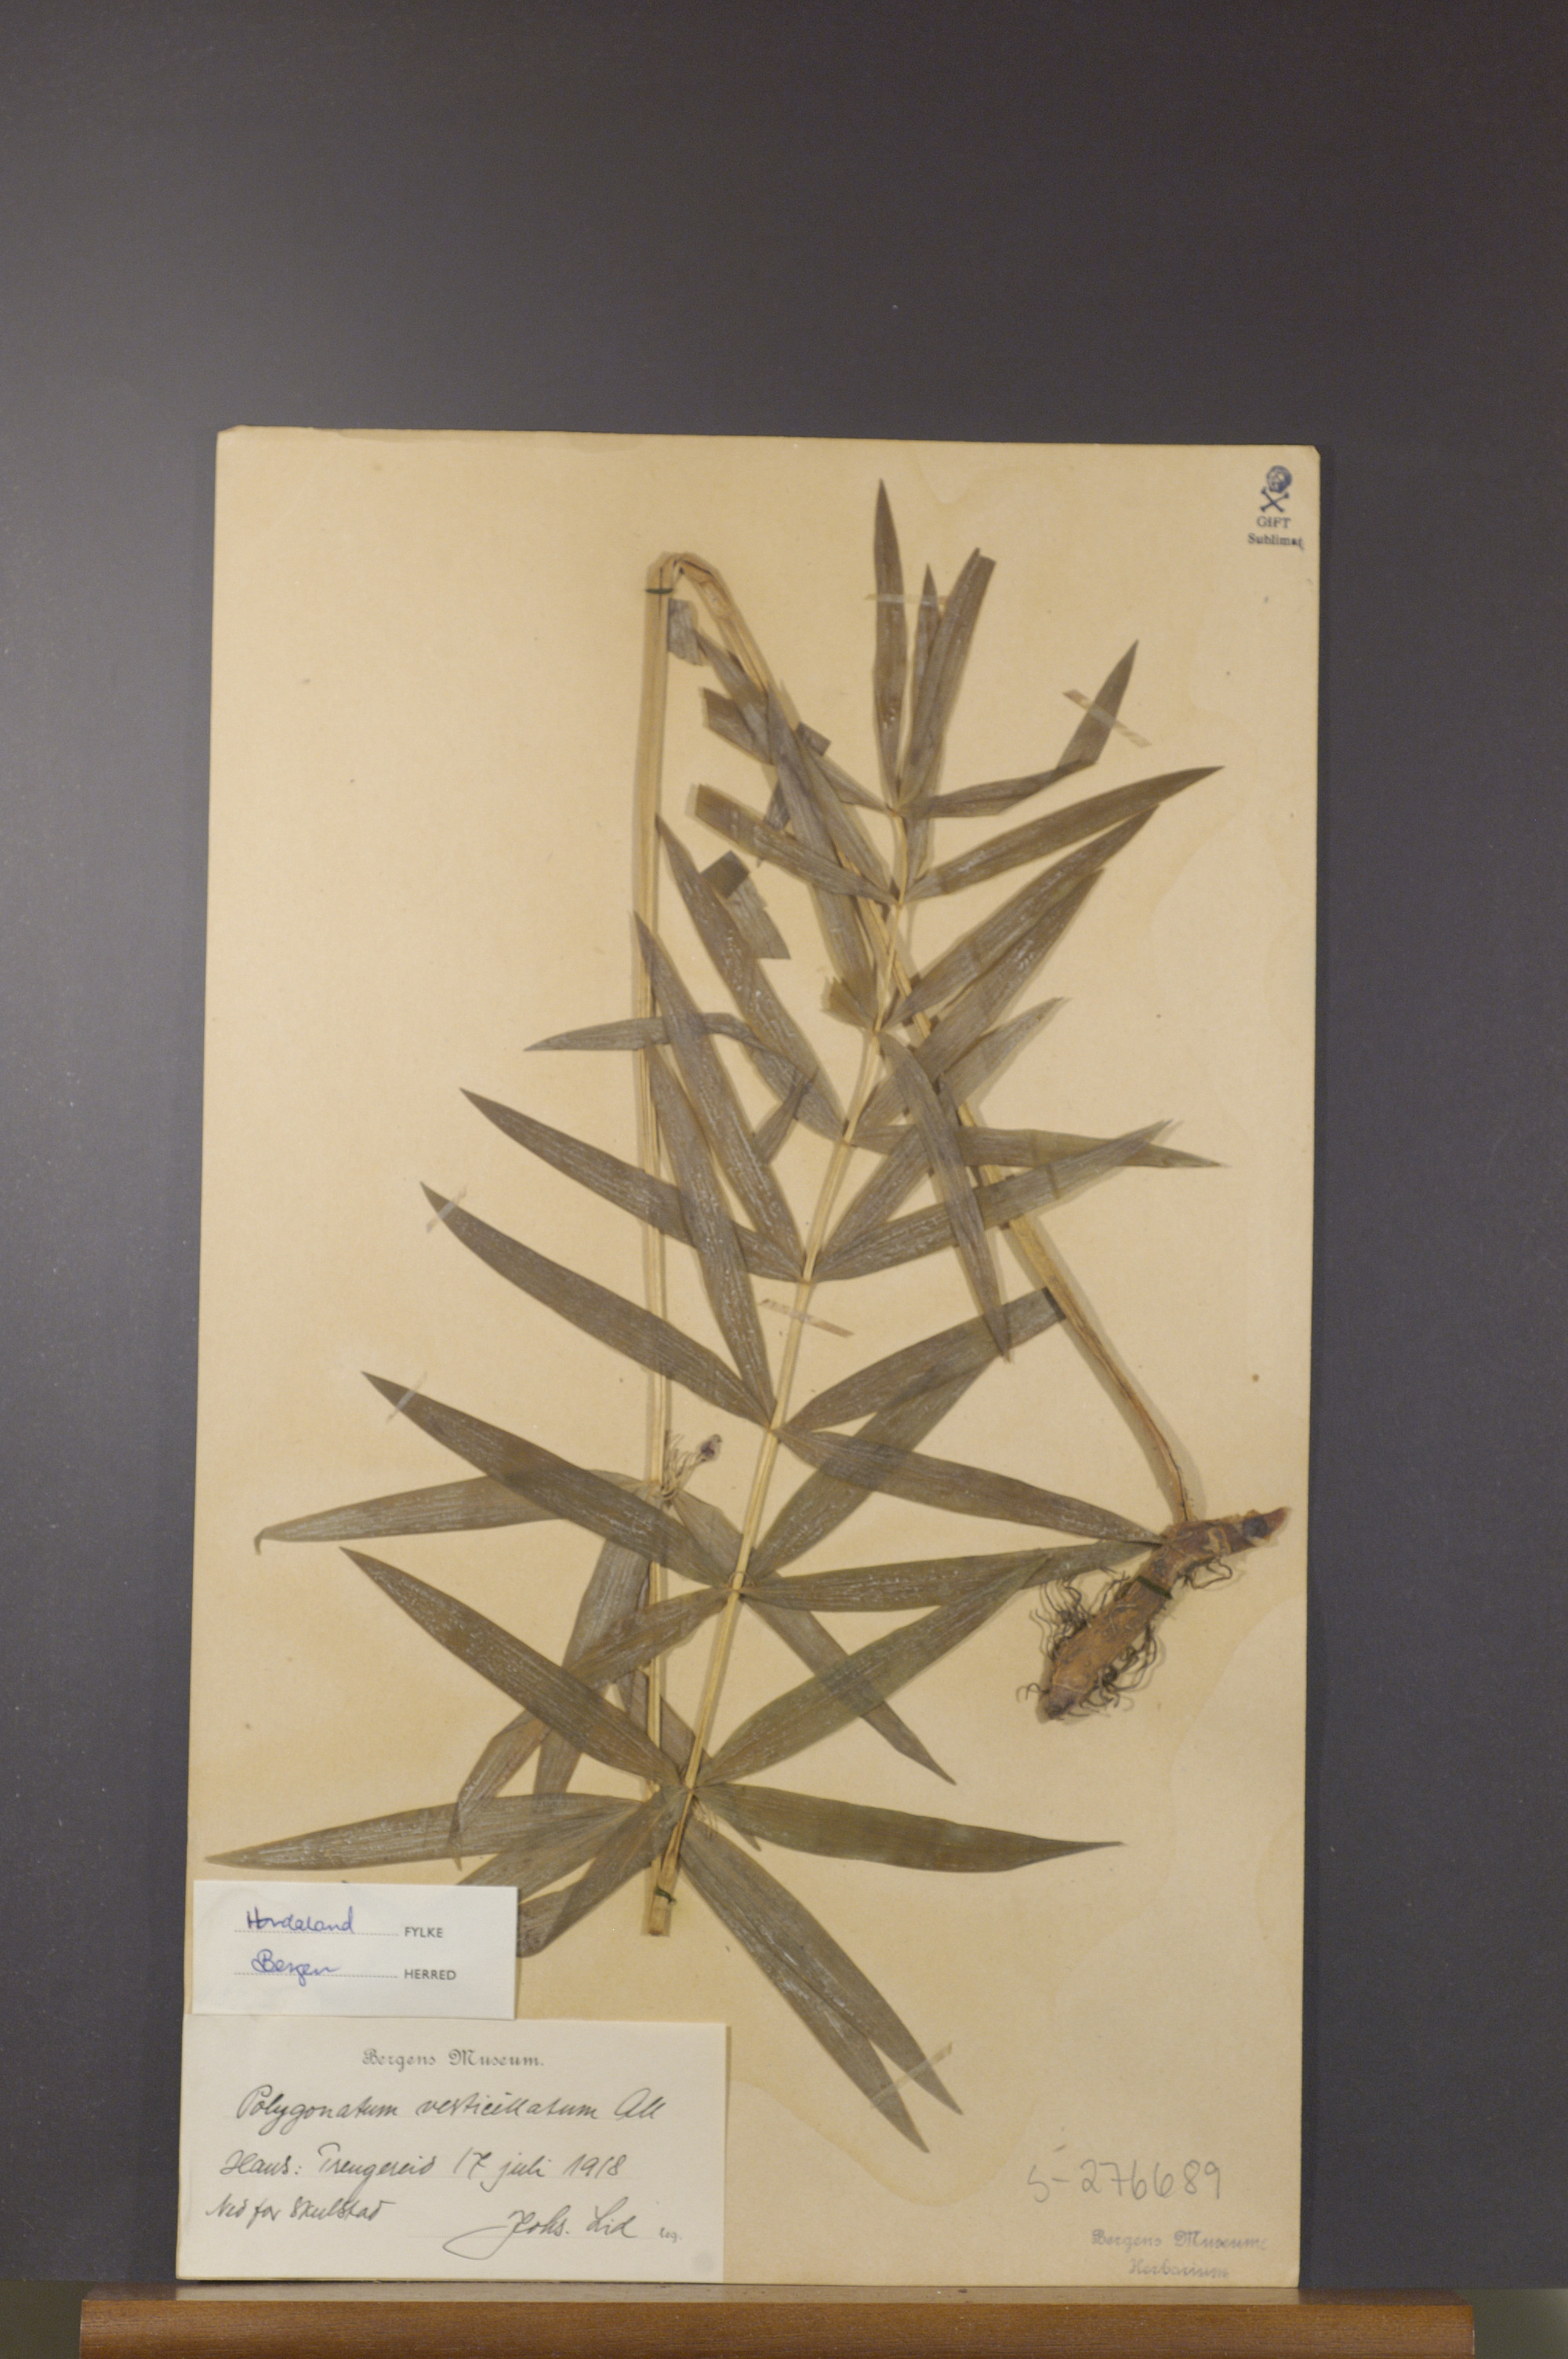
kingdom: Plantae
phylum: Tracheophyta
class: Liliopsida
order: Asparagales
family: Asparagaceae
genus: Polygonatum
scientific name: Polygonatum verticillatum
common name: Whorled solomon's-seal
